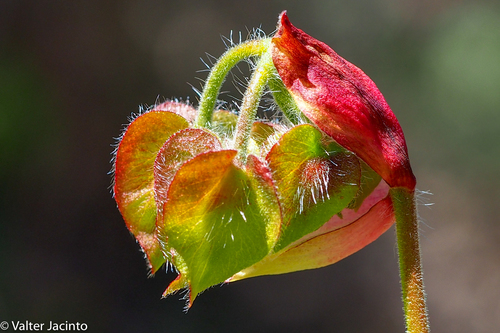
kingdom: Plantae
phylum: Tracheophyta
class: Magnoliopsida
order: Malvales
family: Cistaceae
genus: Cistus
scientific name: Cistus populifolius
